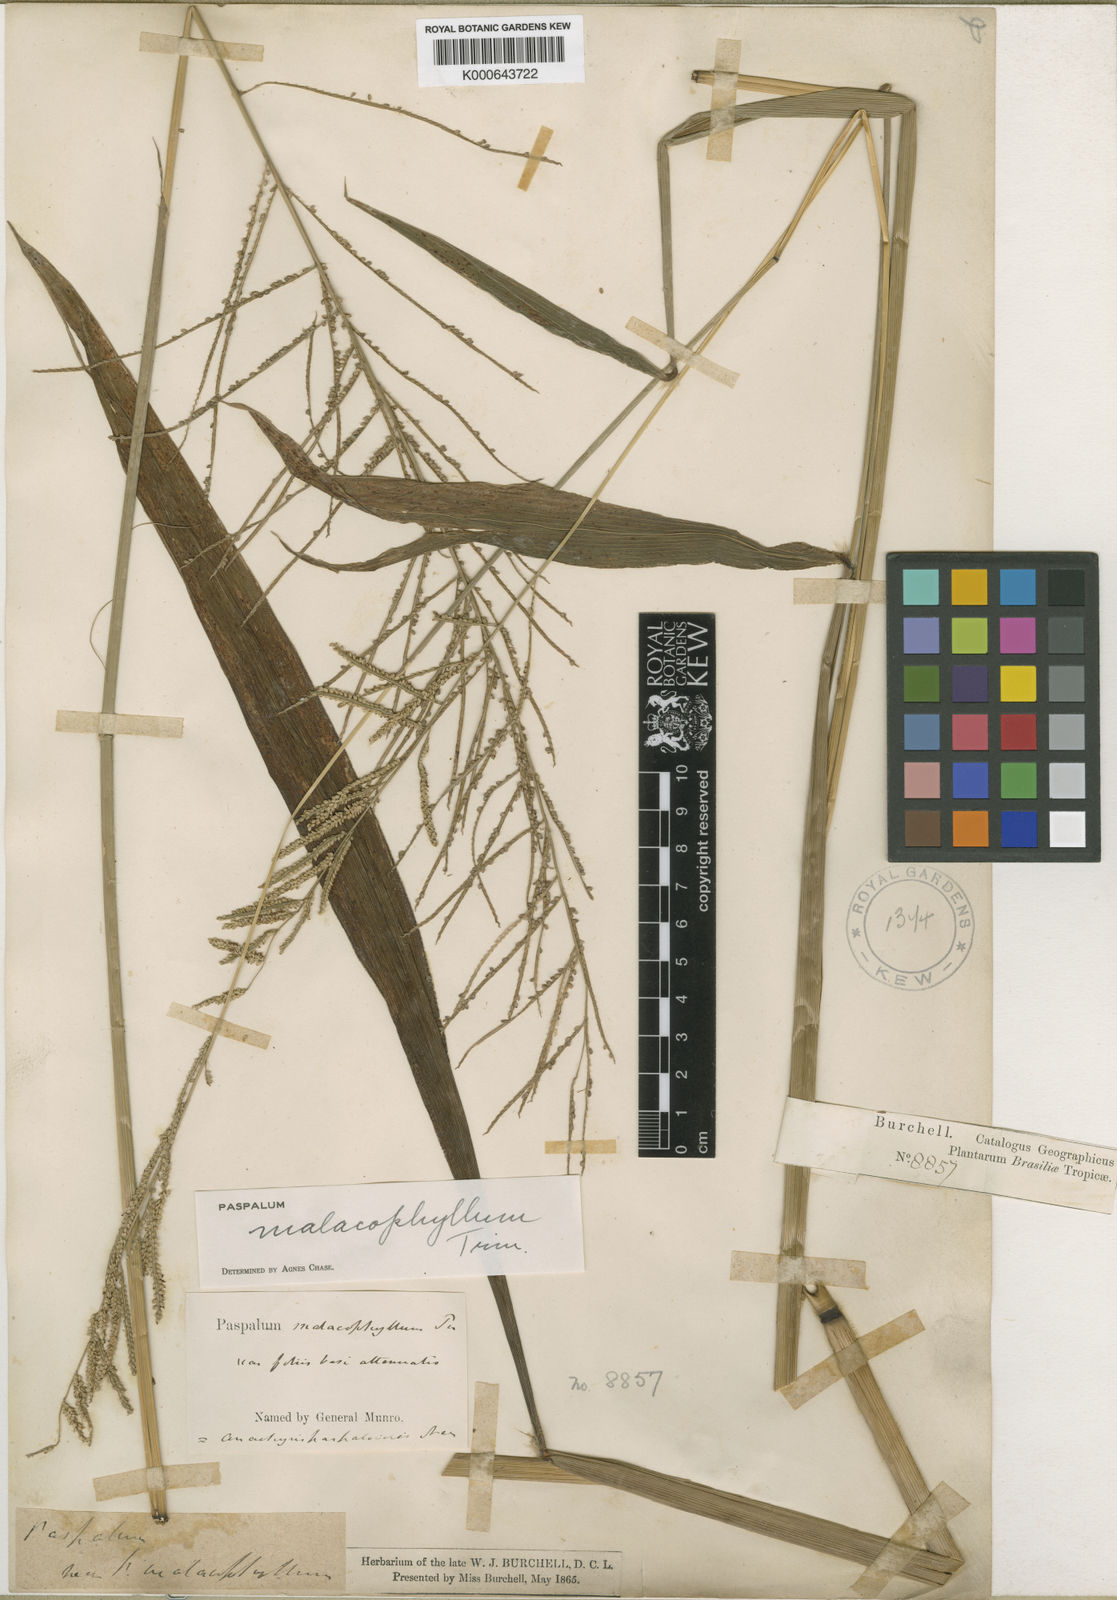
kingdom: Plantae
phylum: Tracheophyta
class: Liliopsida
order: Poales
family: Poaceae
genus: Paspalum
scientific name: Paspalum malacophyllum
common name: Ribbed paspalum
